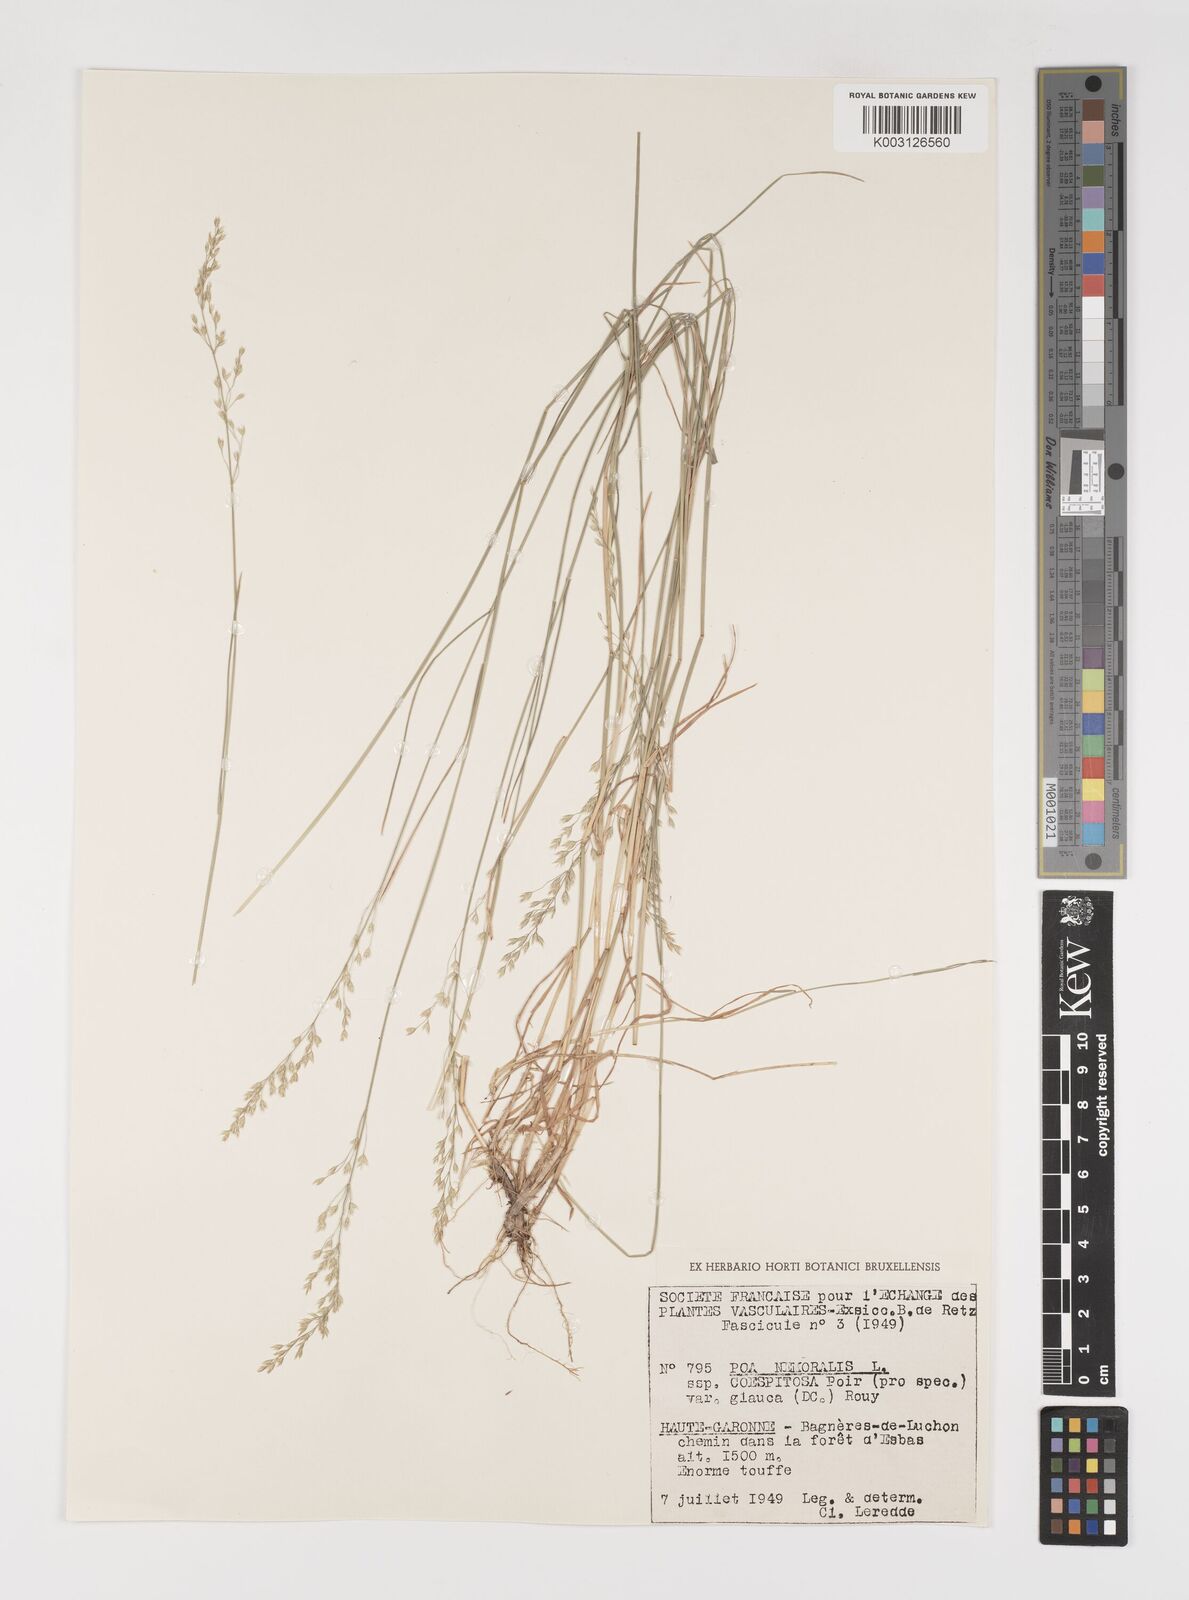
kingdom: Plantae
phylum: Tracheophyta
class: Liliopsida
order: Poales
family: Poaceae
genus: Poa
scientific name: Poa nemoralis
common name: Wood bluegrass
